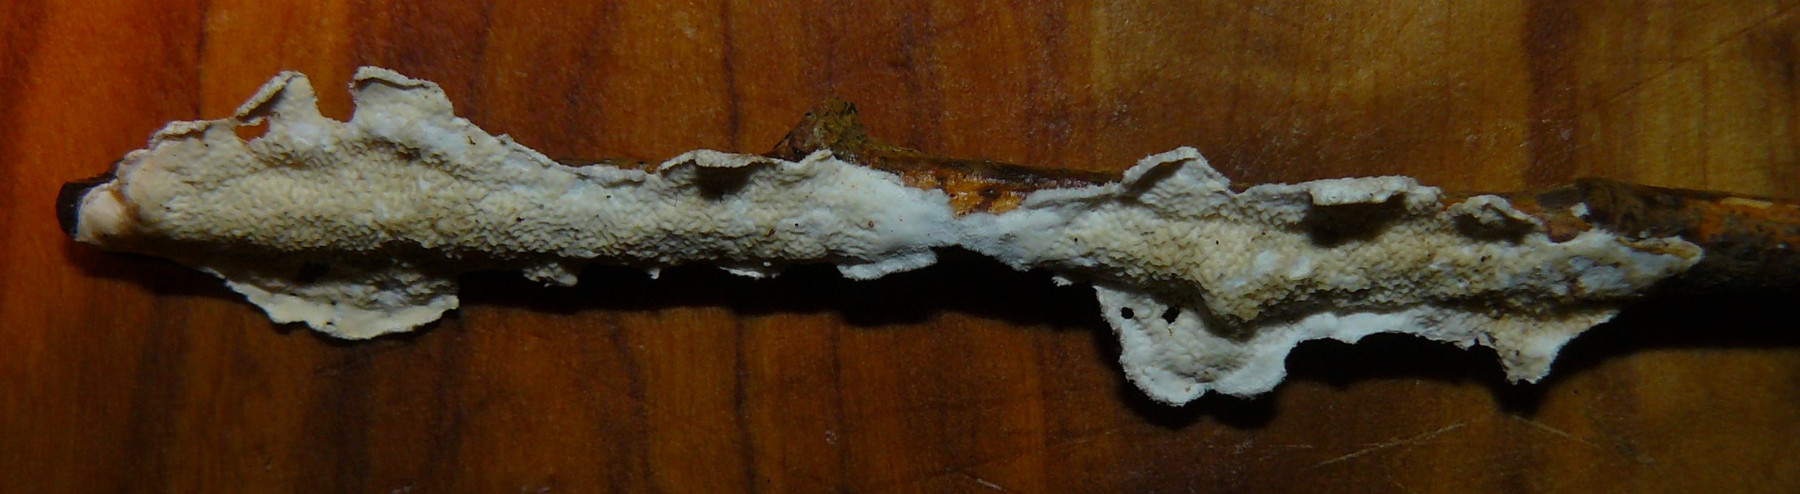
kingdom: Fungi
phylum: Basidiomycota
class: Agaricomycetes
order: Polyporales
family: Irpicaceae
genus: Byssomerulius
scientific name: Byssomerulius corium
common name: læder-åresvamp
